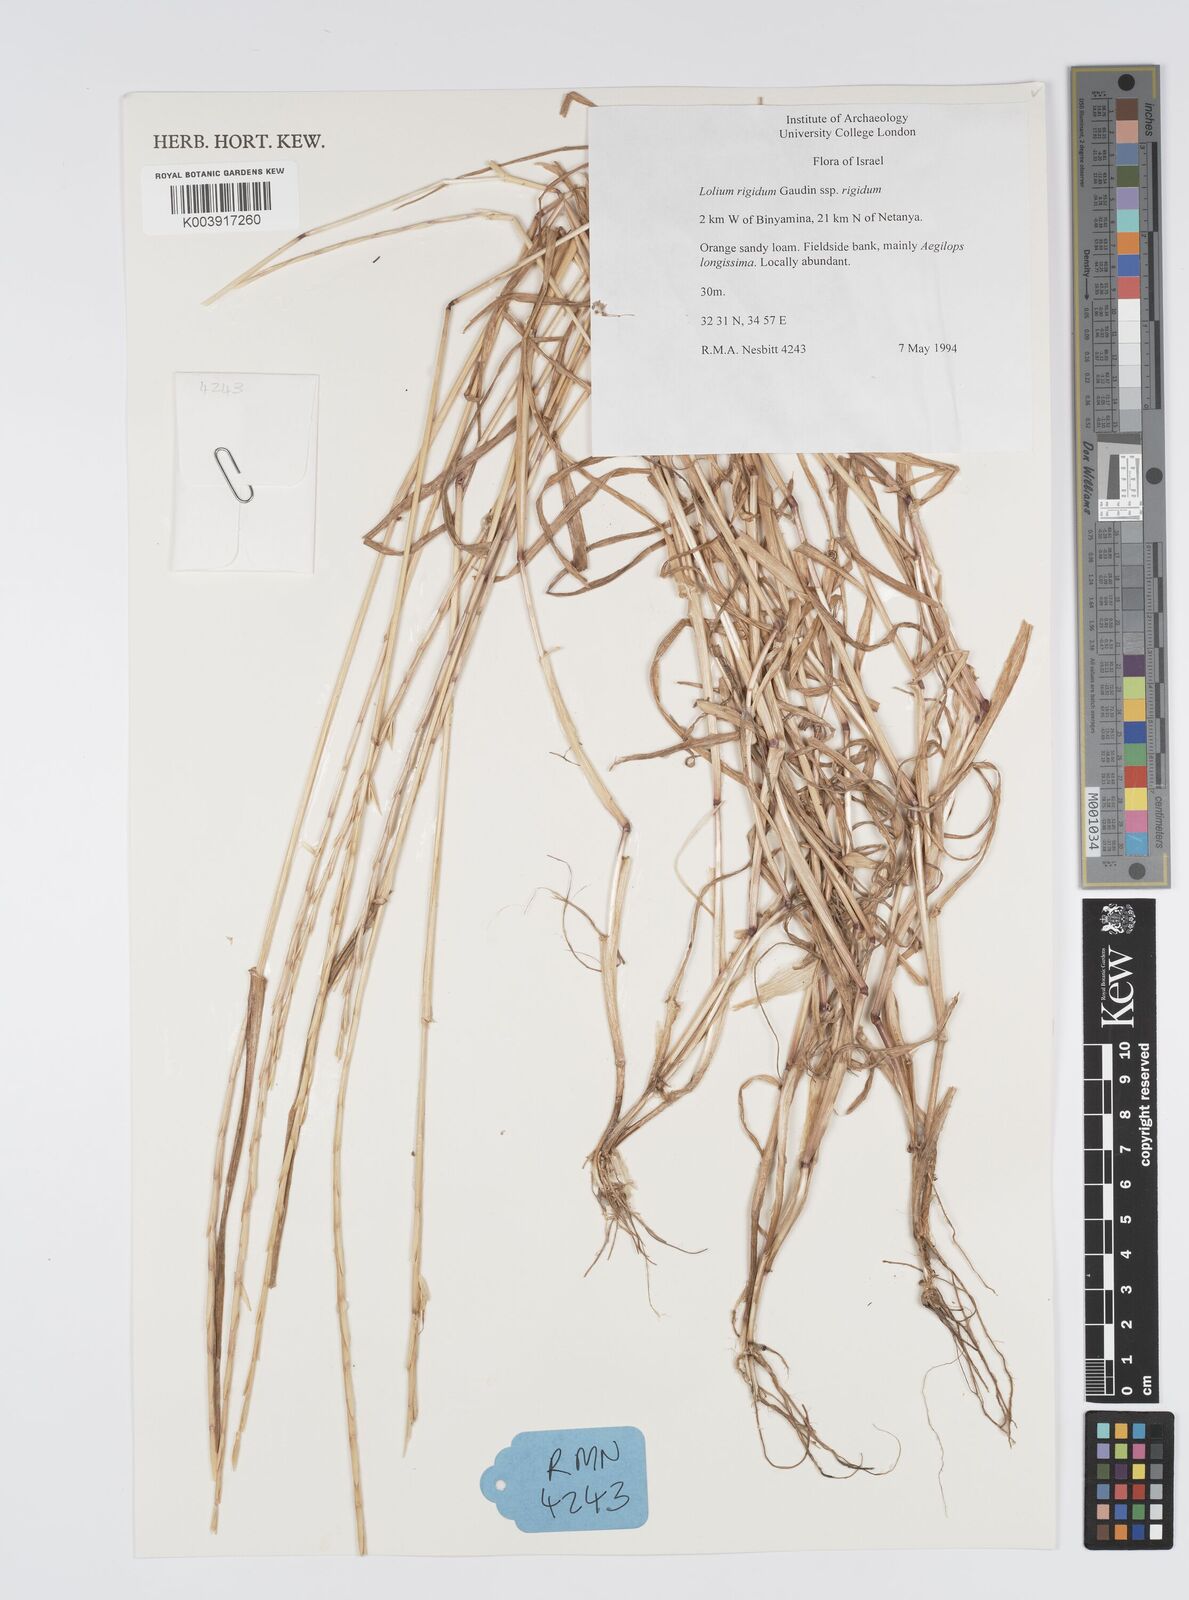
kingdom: Plantae
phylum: Tracheophyta
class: Liliopsida
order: Poales
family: Poaceae
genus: Lolium
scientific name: Lolium rigidum
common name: Wimmera ryegrass
